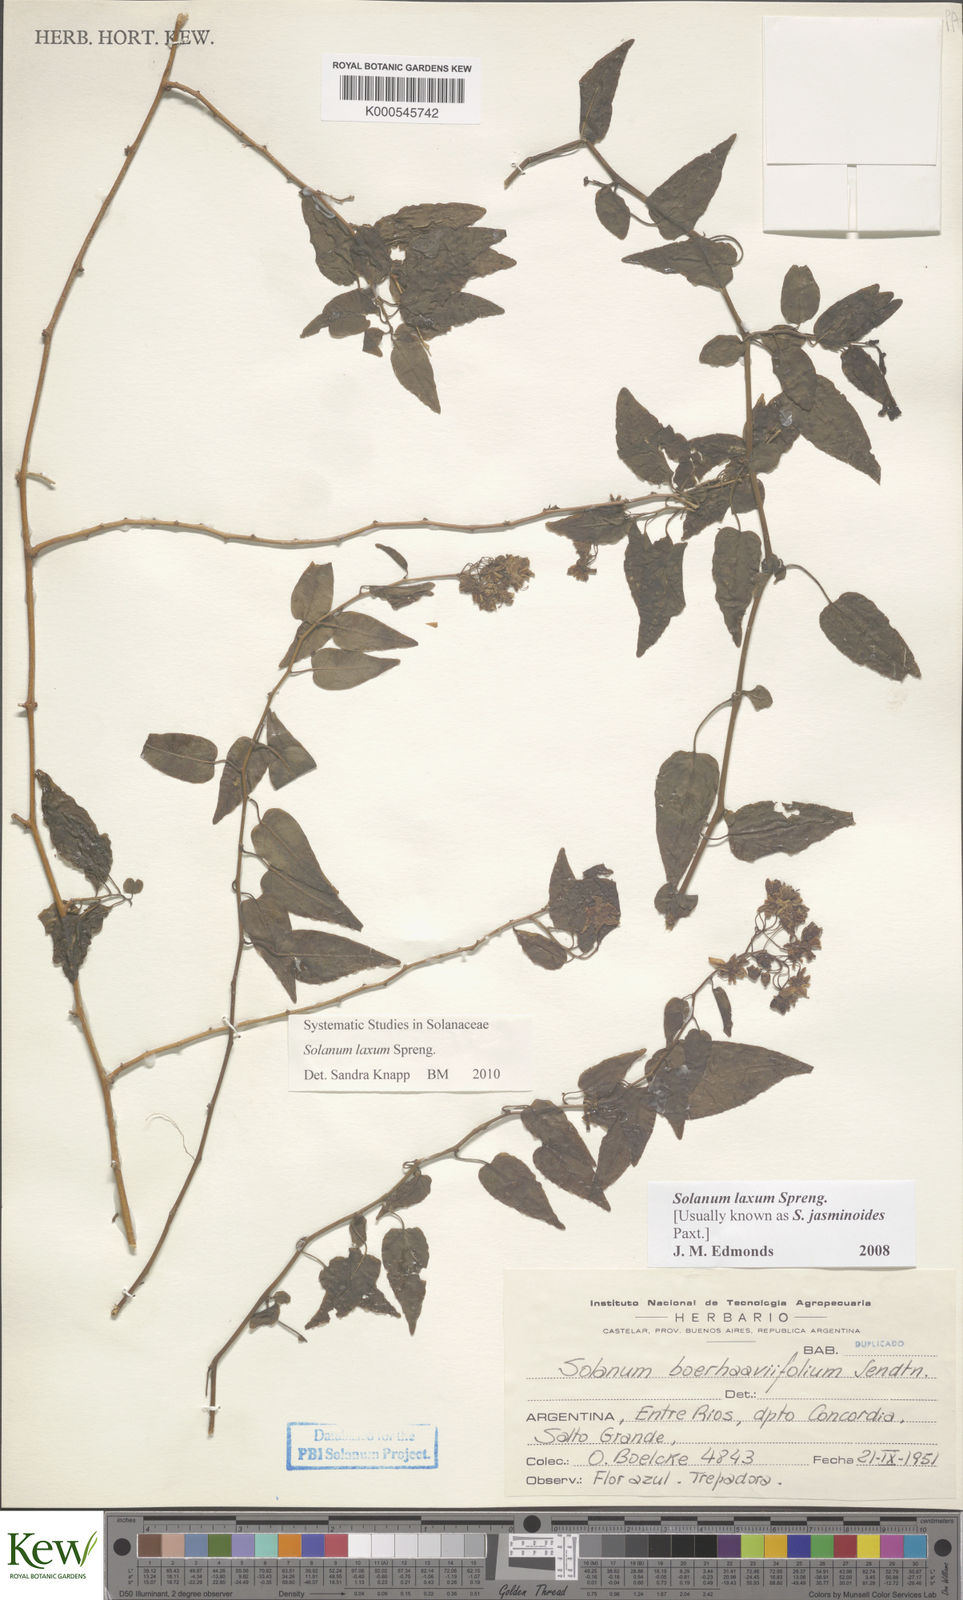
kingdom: Plantae
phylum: Tracheophyta
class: Magnoliopsida
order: Solanales
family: Solanaceae
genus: Solanum
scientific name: Solanum laxum
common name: Nightshade
